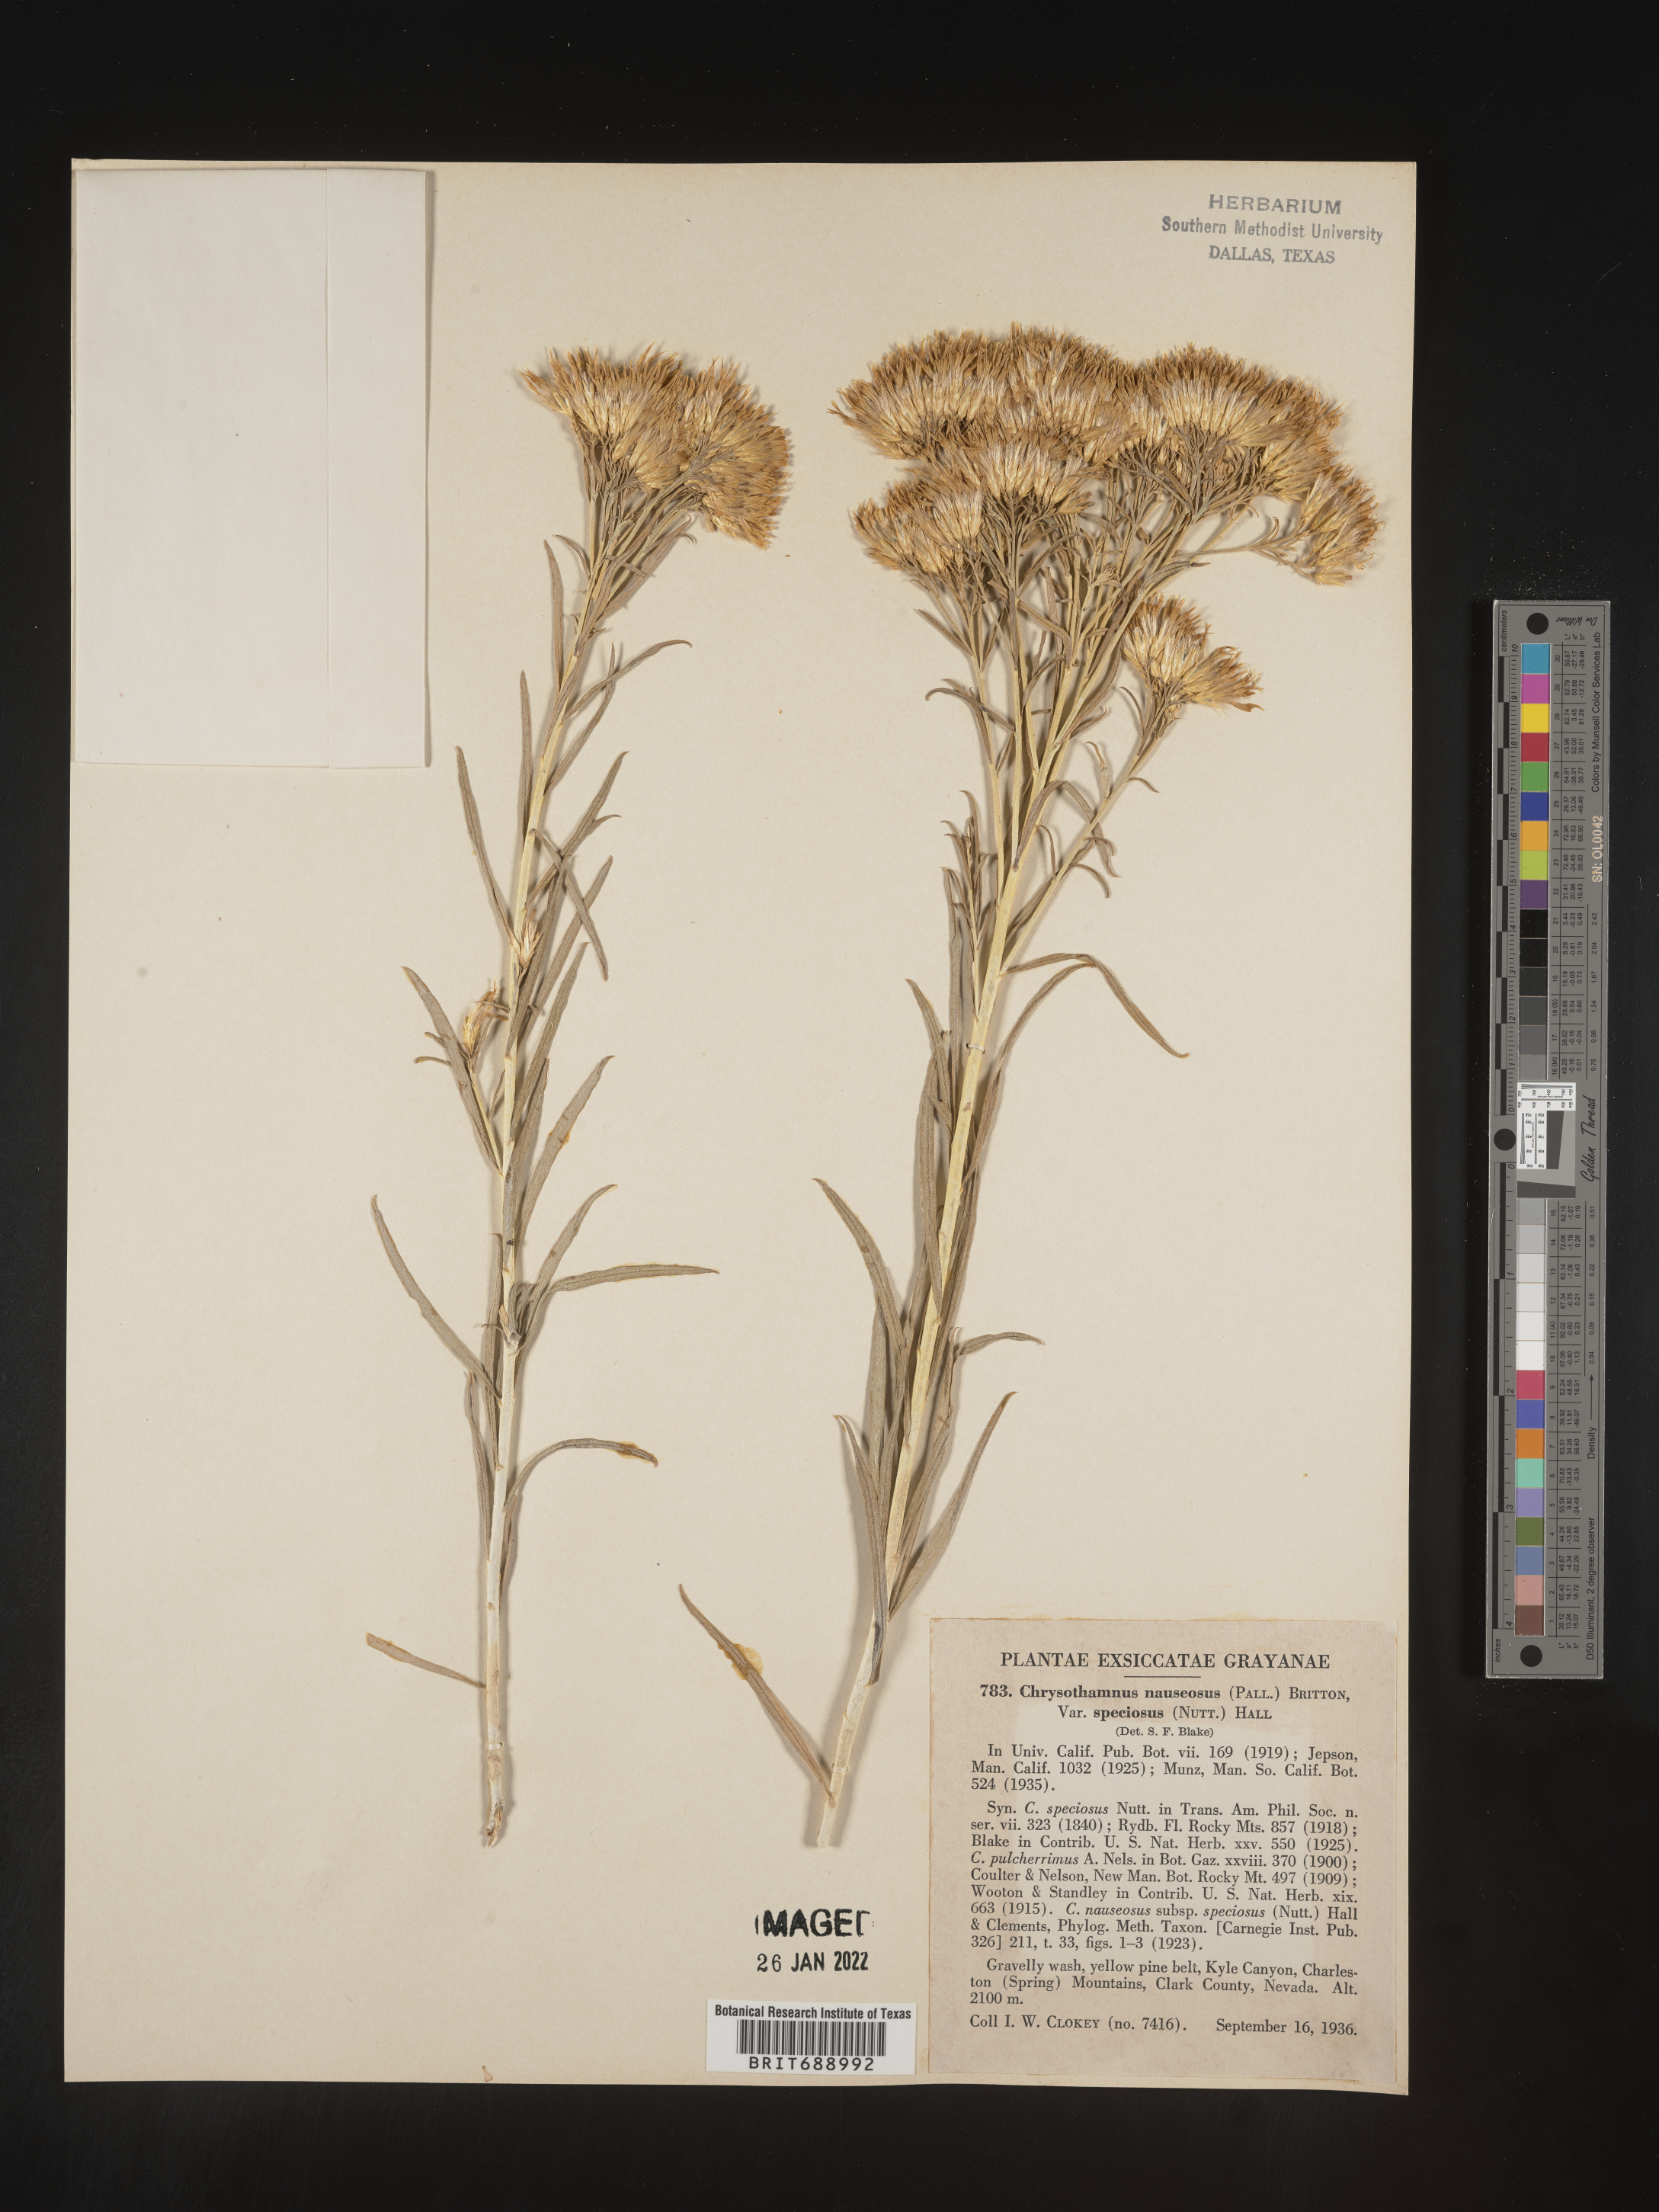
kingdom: Plantae
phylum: Tracheophyta
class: Magnoliopsida
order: Asterales
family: Asteraceae
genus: Ericameria
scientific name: Ericameria nauseosa
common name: Rubber rabbitbrush
